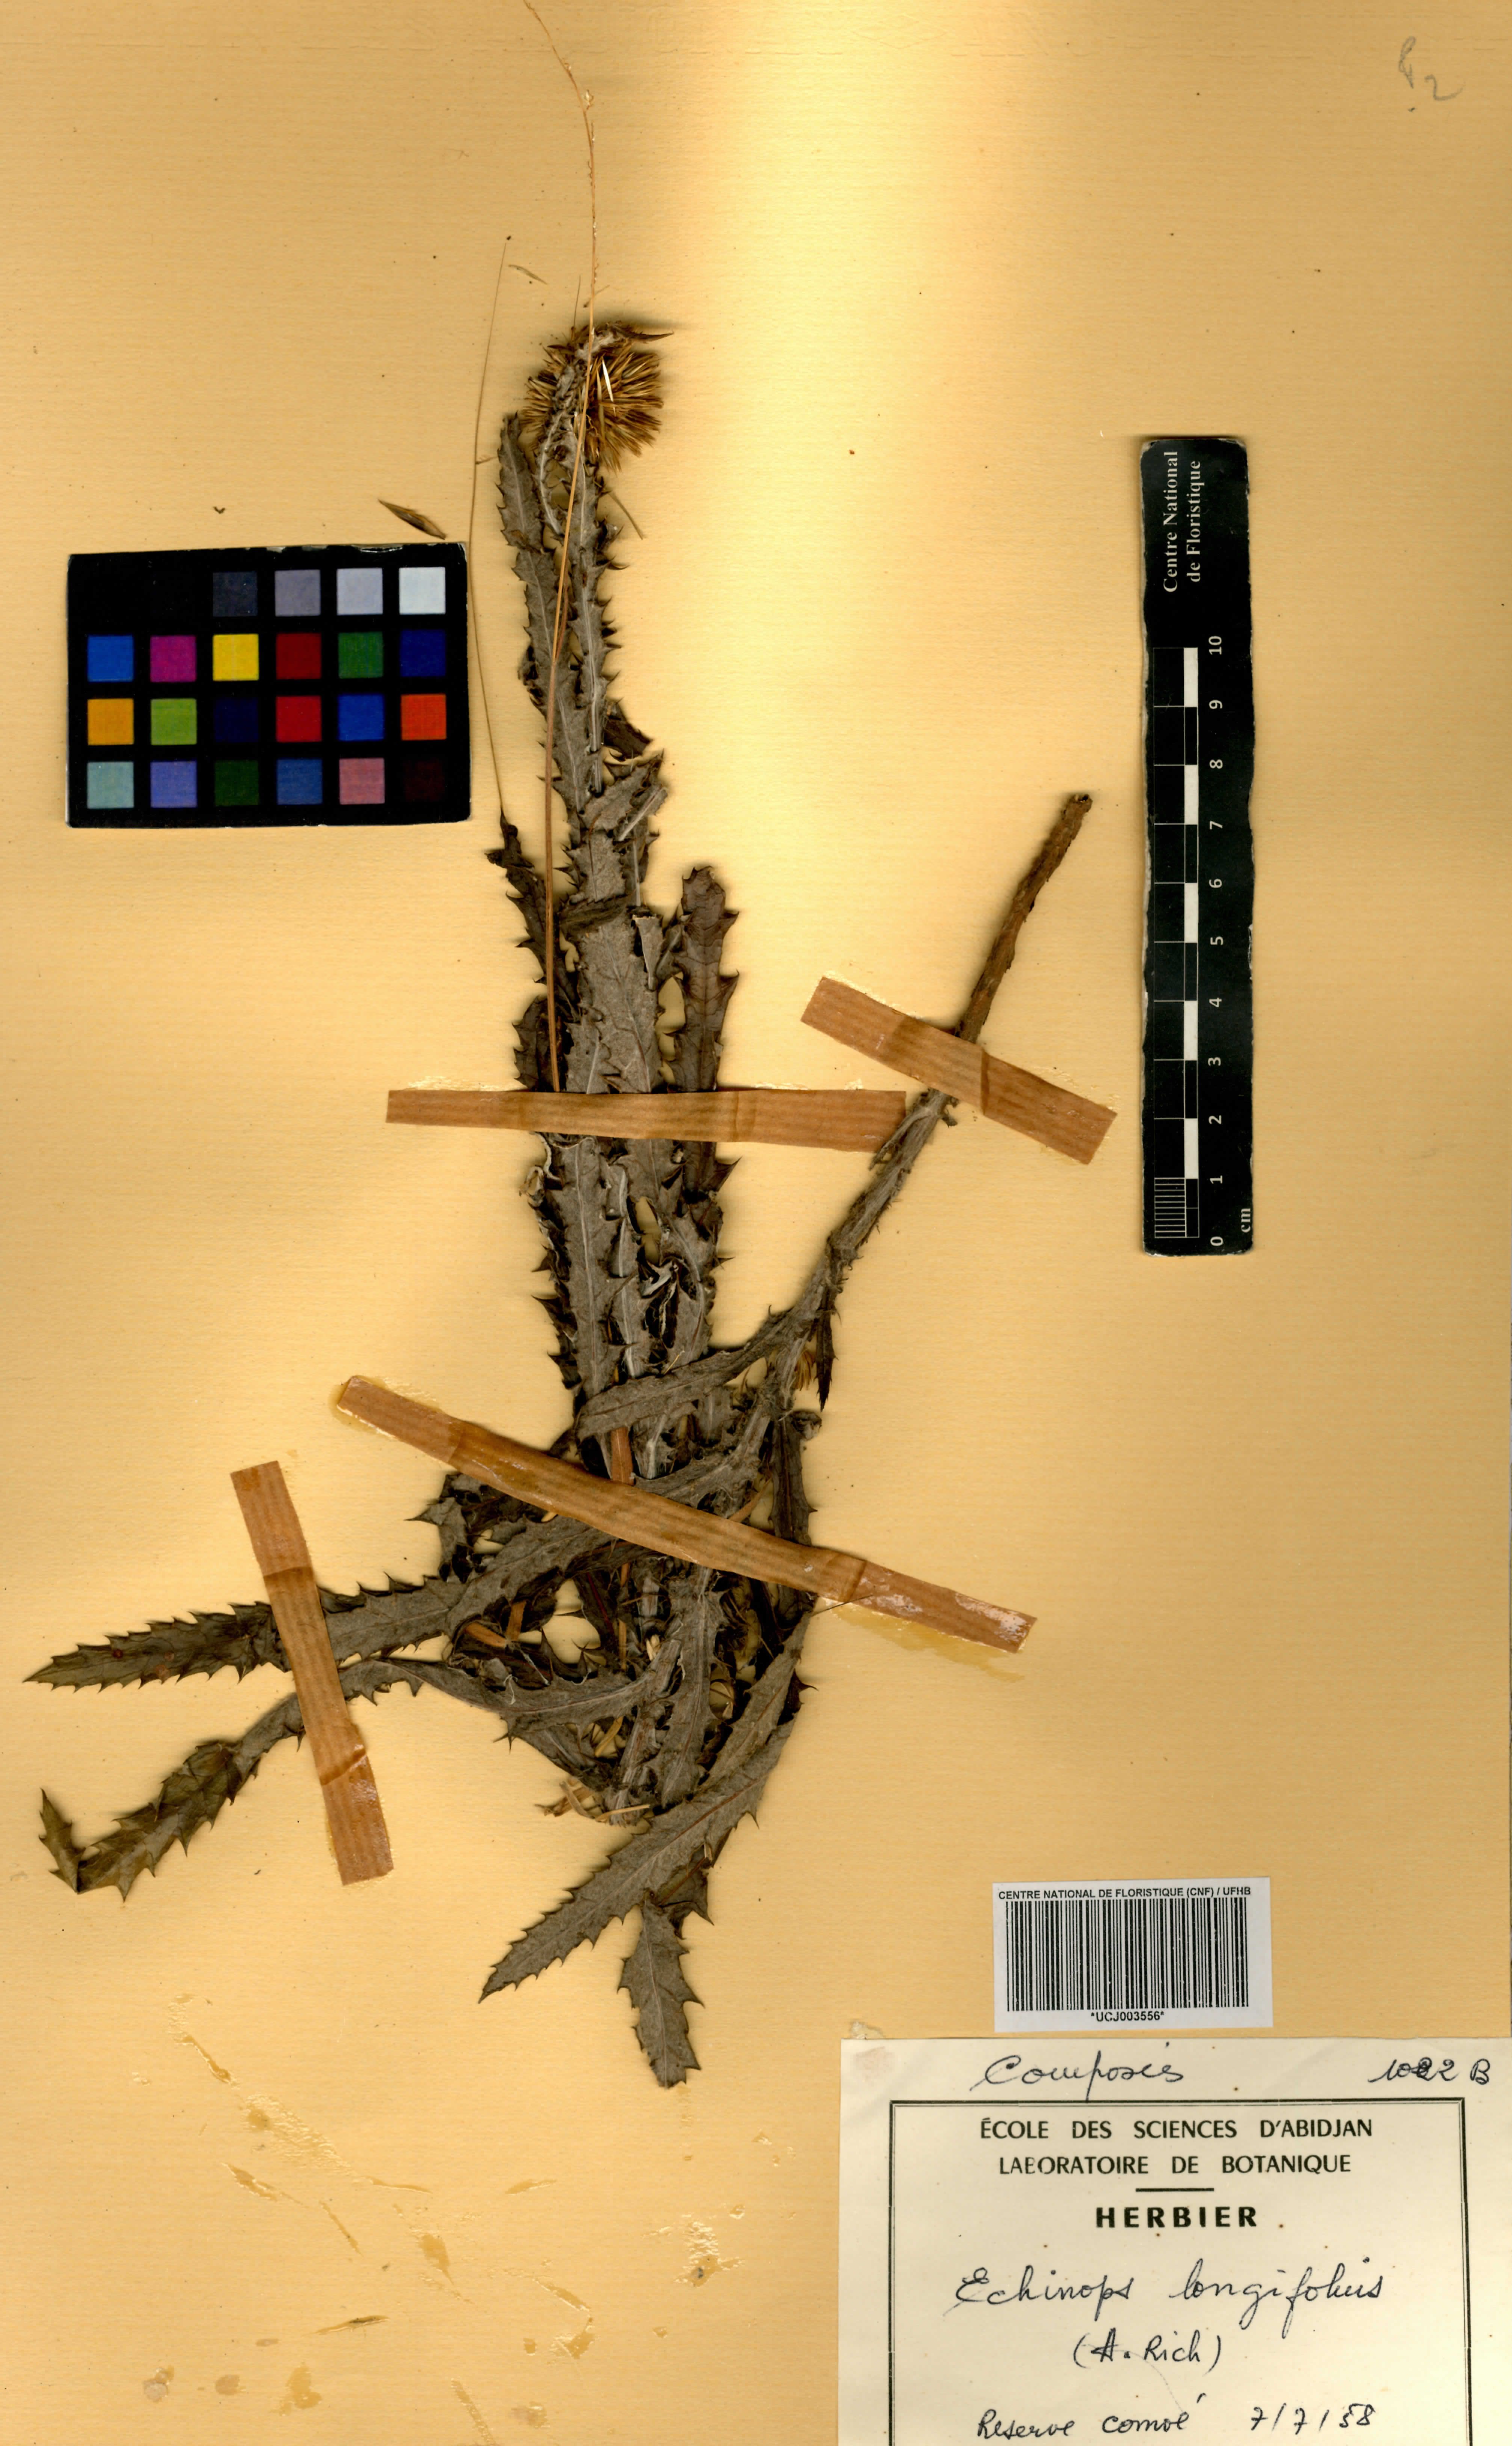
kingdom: Plantae
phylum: Tracheophyta
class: Magnoliopsida
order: Asterales
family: Asteraceae
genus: Echinops
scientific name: Echinops longifolius
